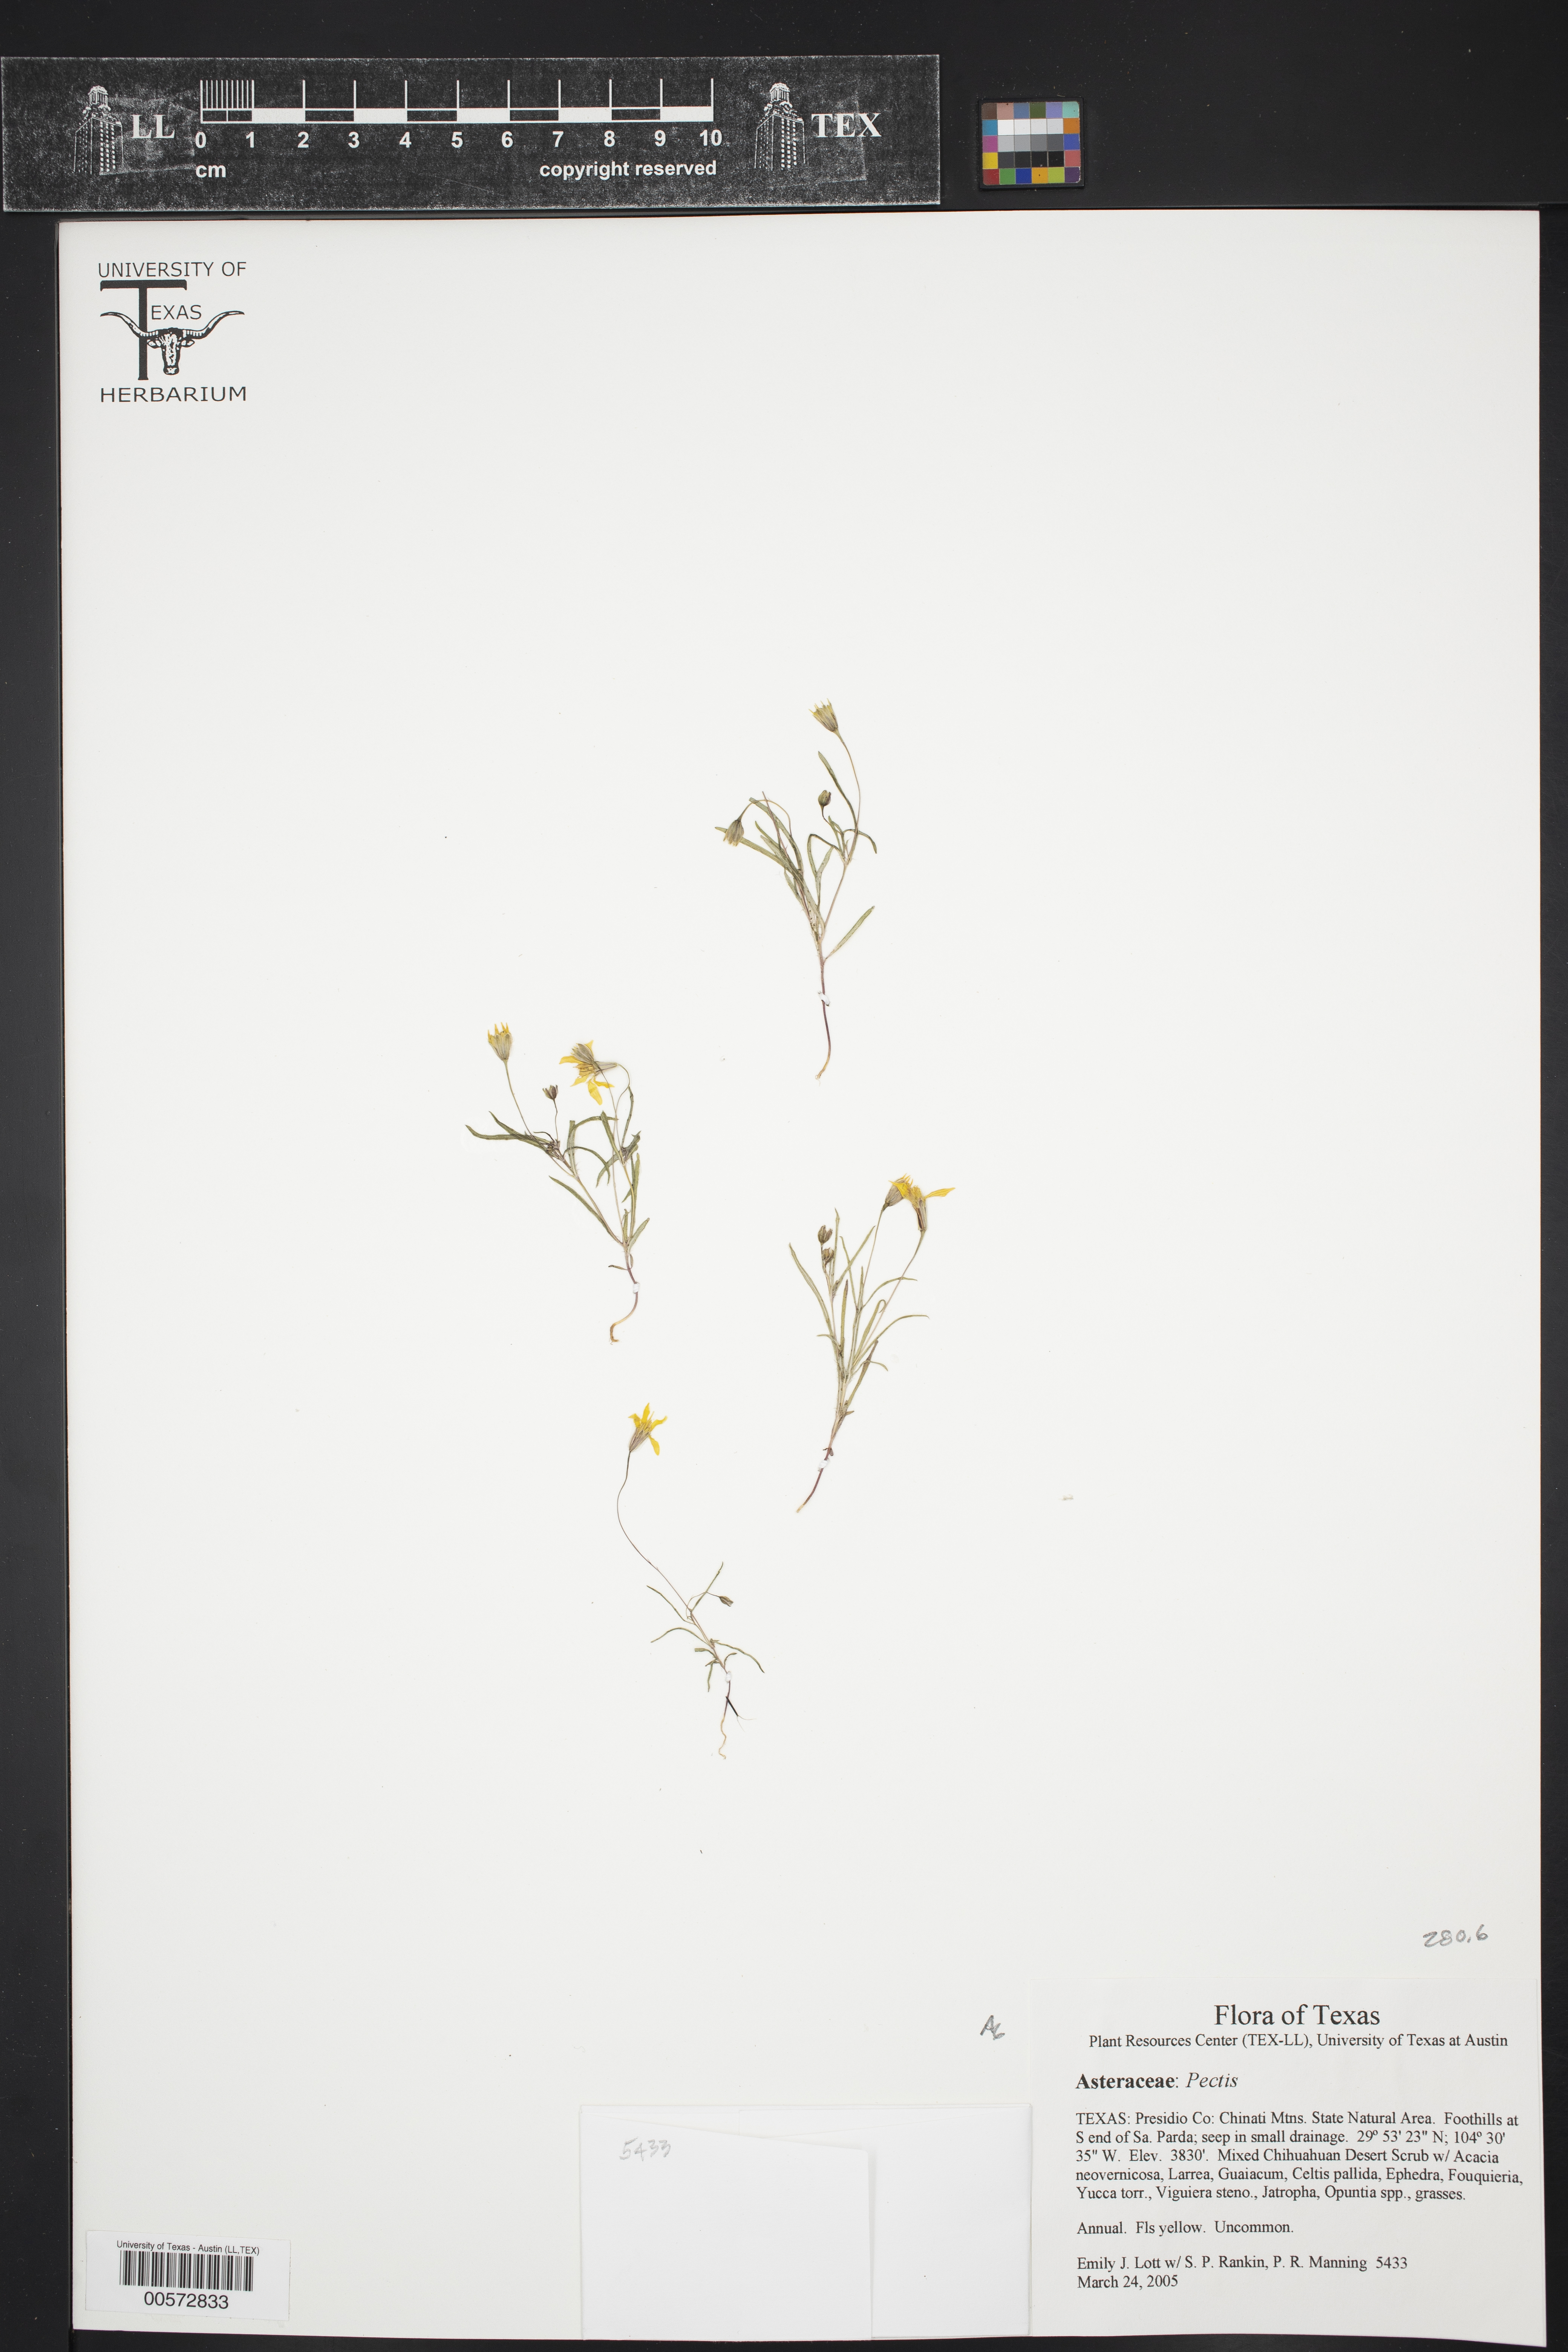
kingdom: Plantae
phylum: Tracheophyta
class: Magnoliopsida
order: Asterales
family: Asteraceae
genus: Pectis
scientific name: Pectis
